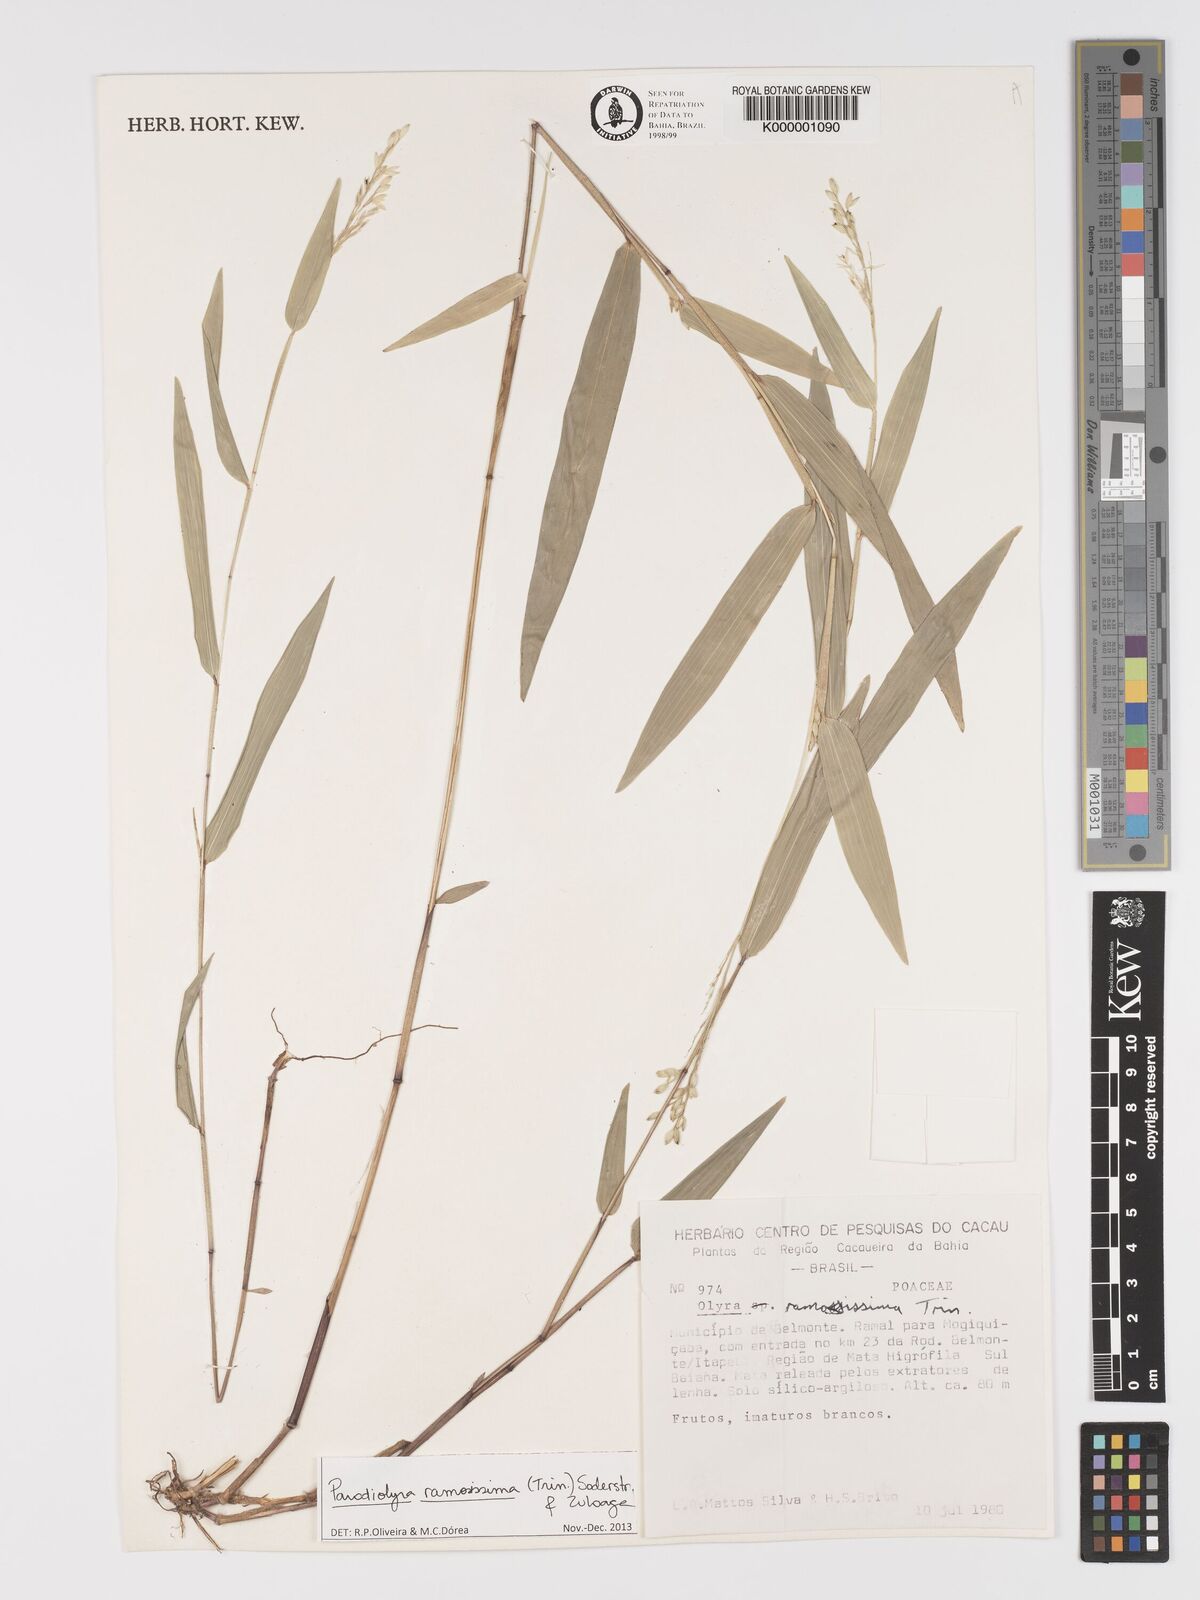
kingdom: Plantae
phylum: Tracheophyta
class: Liliopsida
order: Poales
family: Poaceae
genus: Parodiolyra
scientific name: Parodiolyra ramosissima
